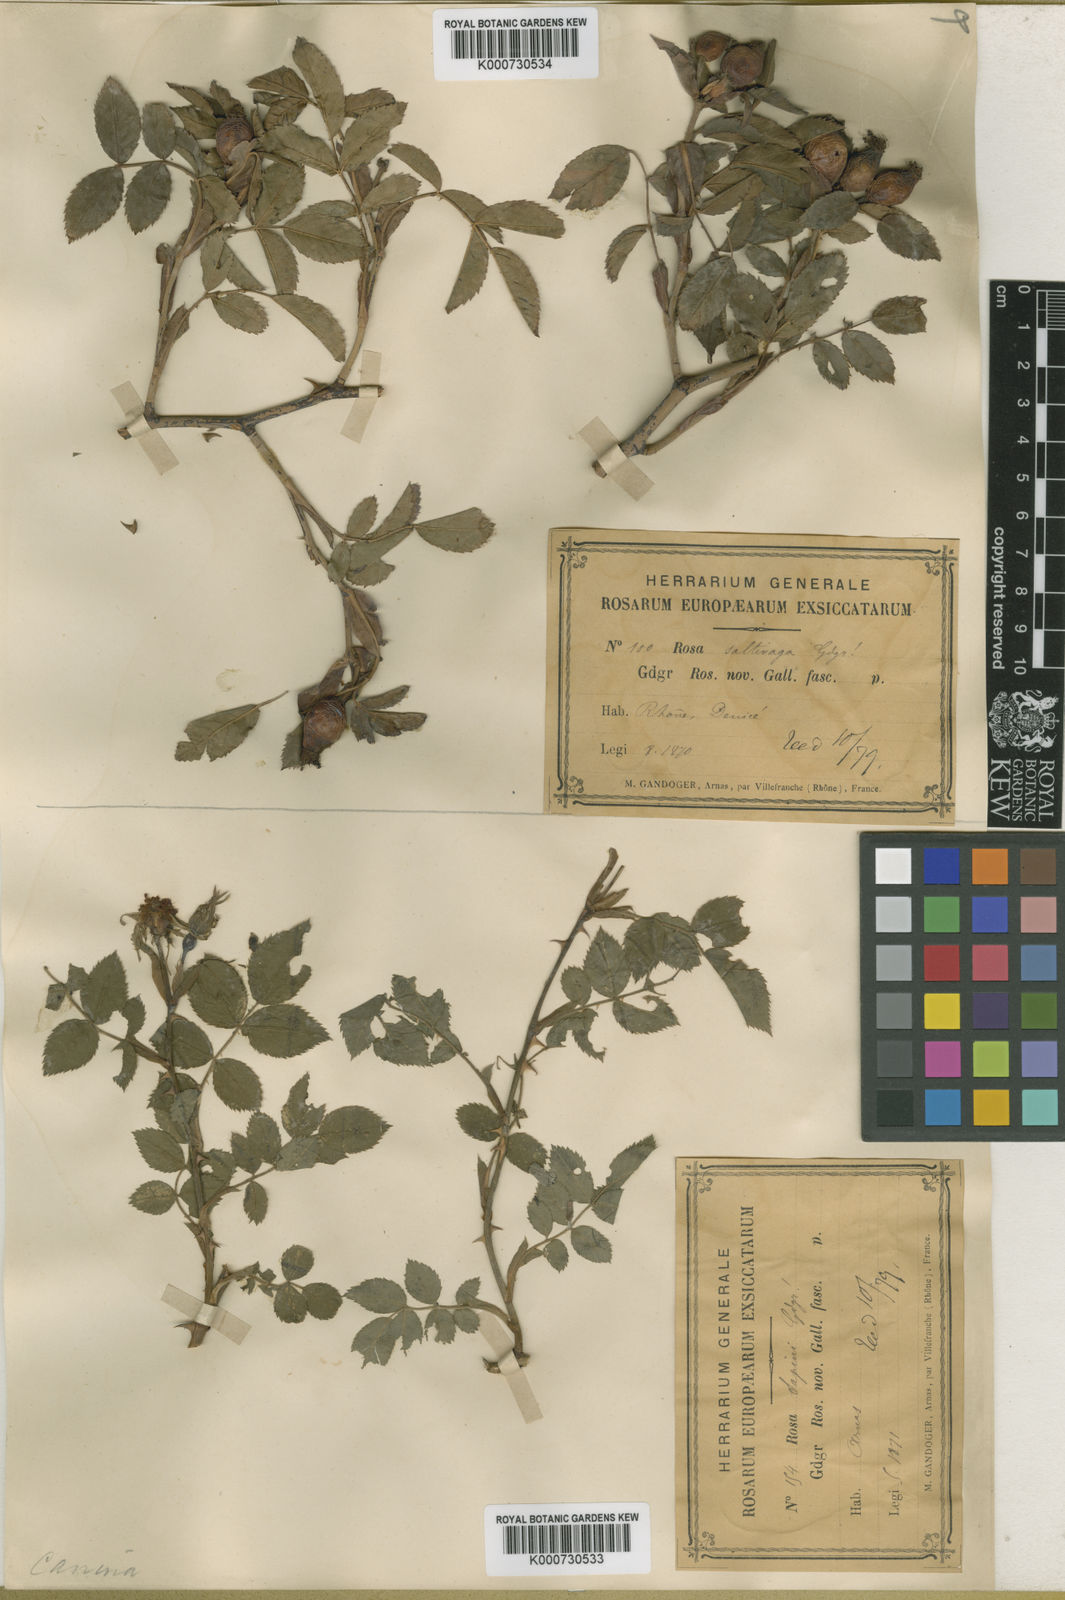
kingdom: Plantae
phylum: Tracheophyta
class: Magnoliopsida
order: Rosales
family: Rosaceae
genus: Rosa
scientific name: Rosa canina
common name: Dog rose
